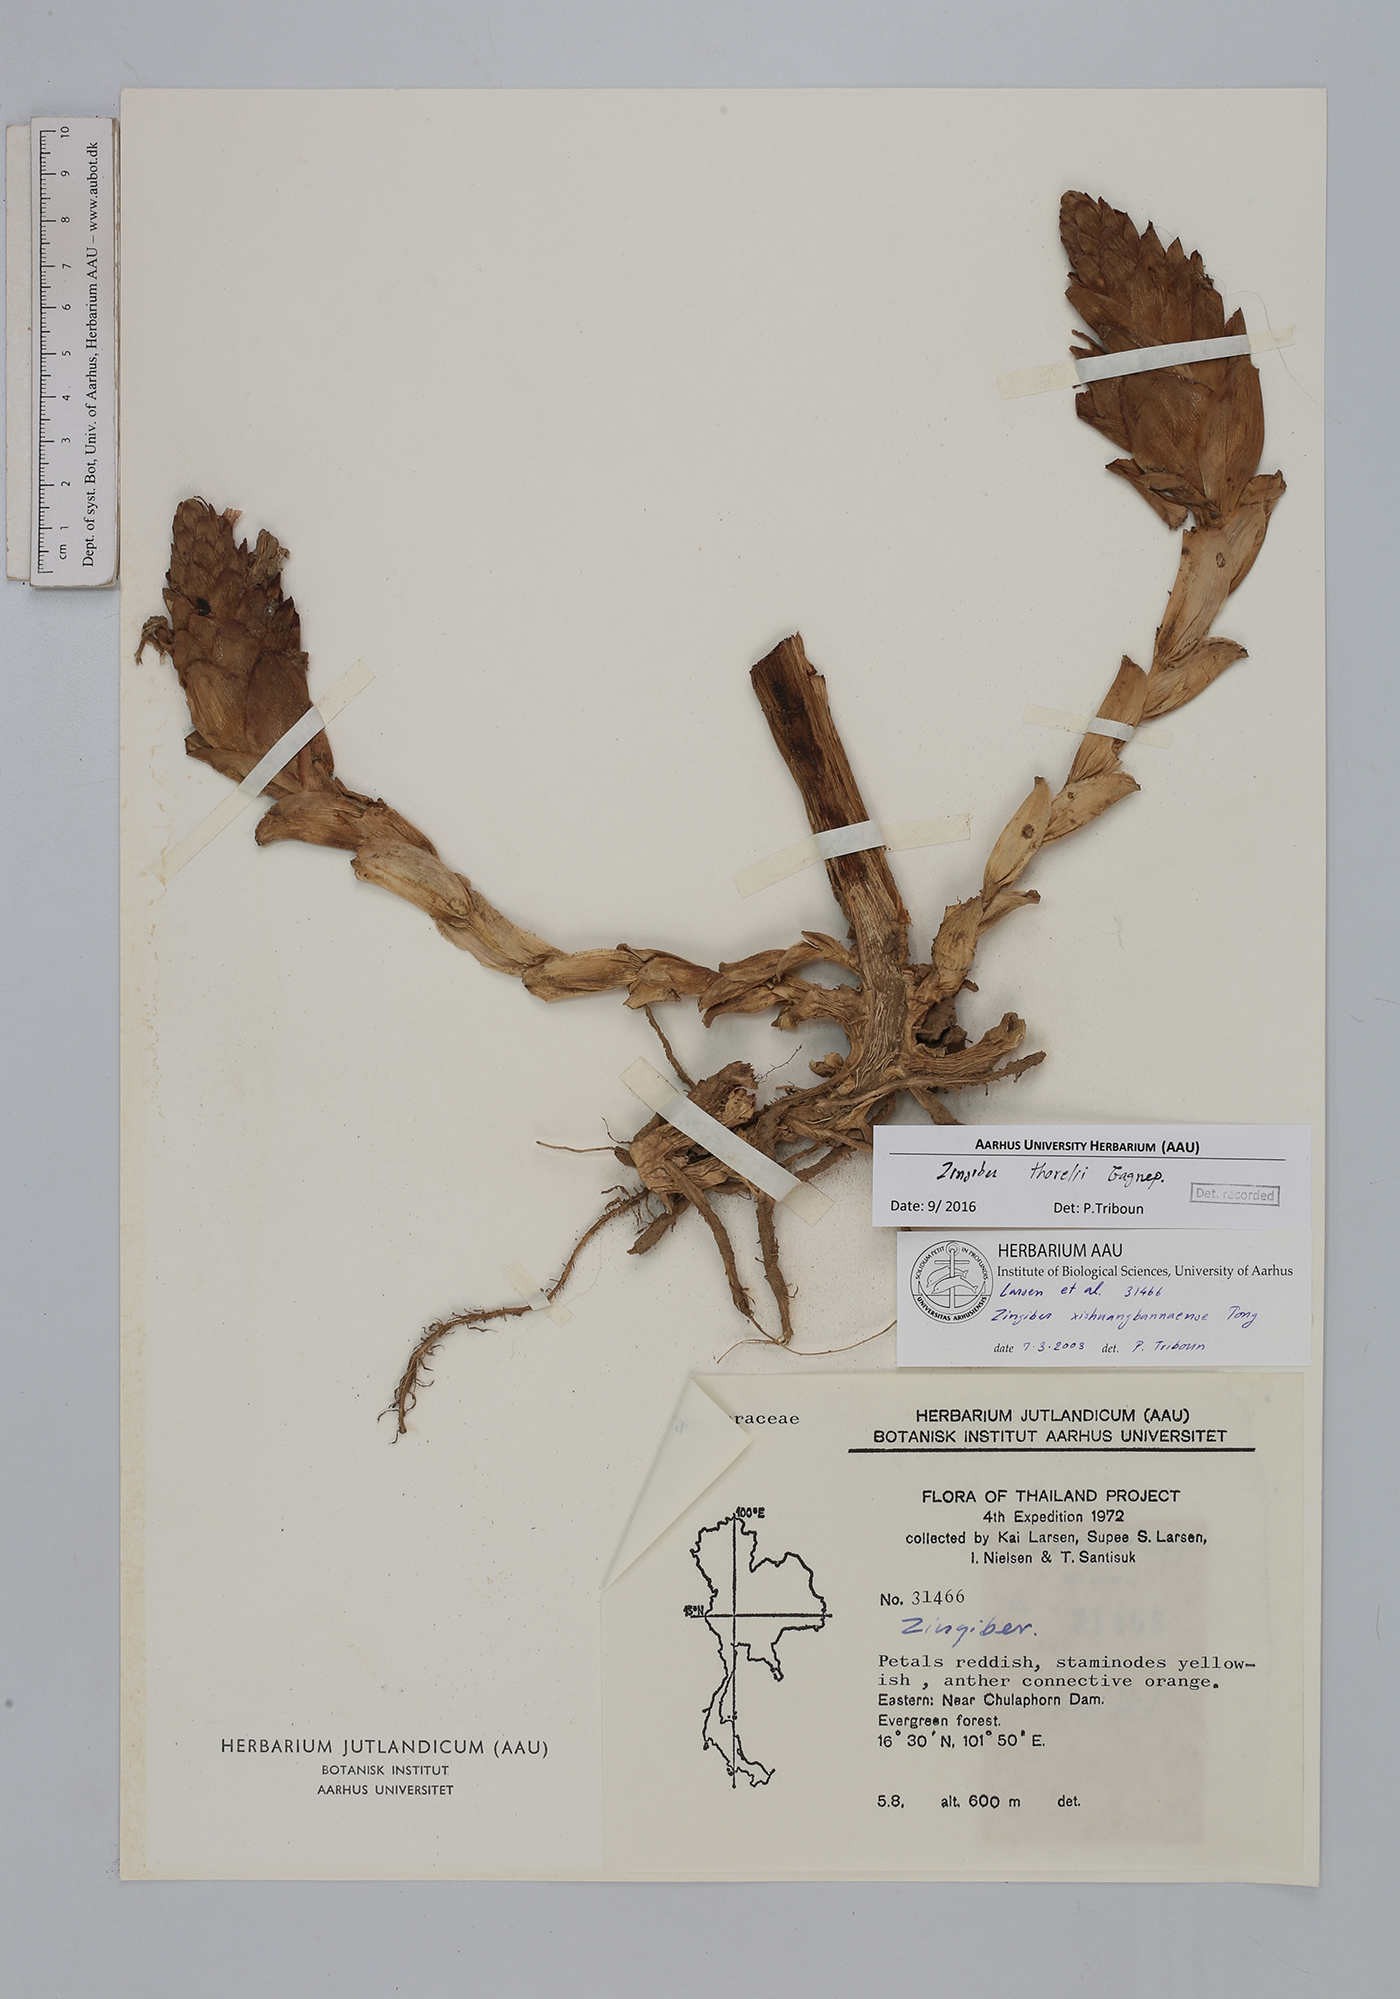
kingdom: Plantae
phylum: Tracheophyta
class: Liliopsida
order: Zingiberales
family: Zingiberaceae
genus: Zingiber
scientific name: Zingiber thorelii
